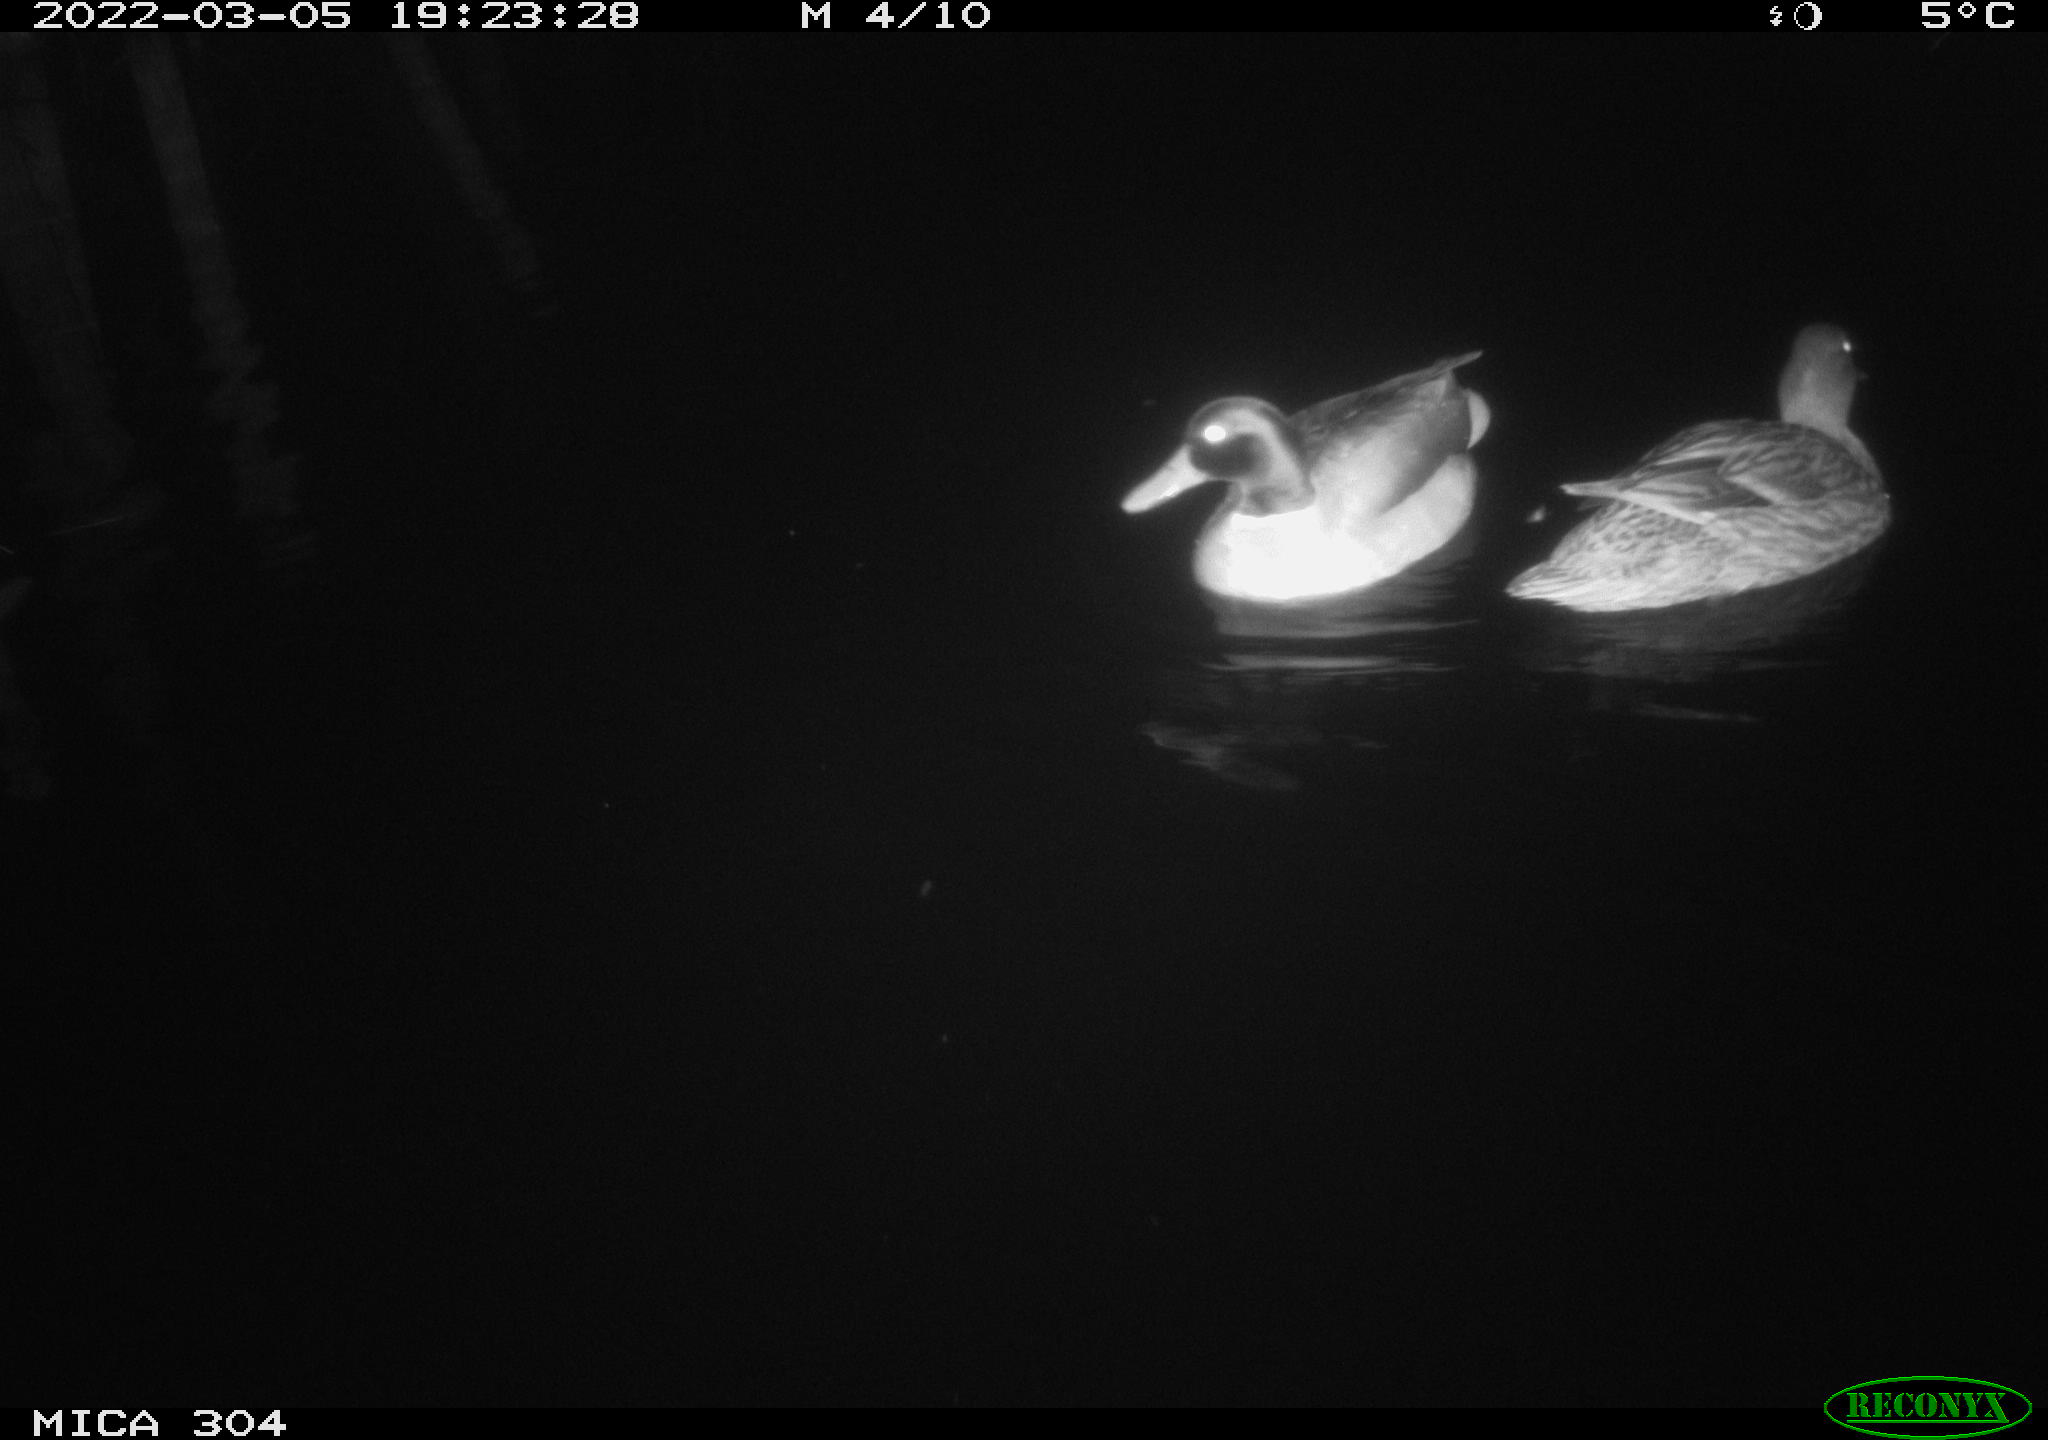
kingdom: Animalia
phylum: Chordata
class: Aves
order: Anseriformes
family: Anatidae
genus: Anas
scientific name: Anas platyrhynchos
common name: Mallard
